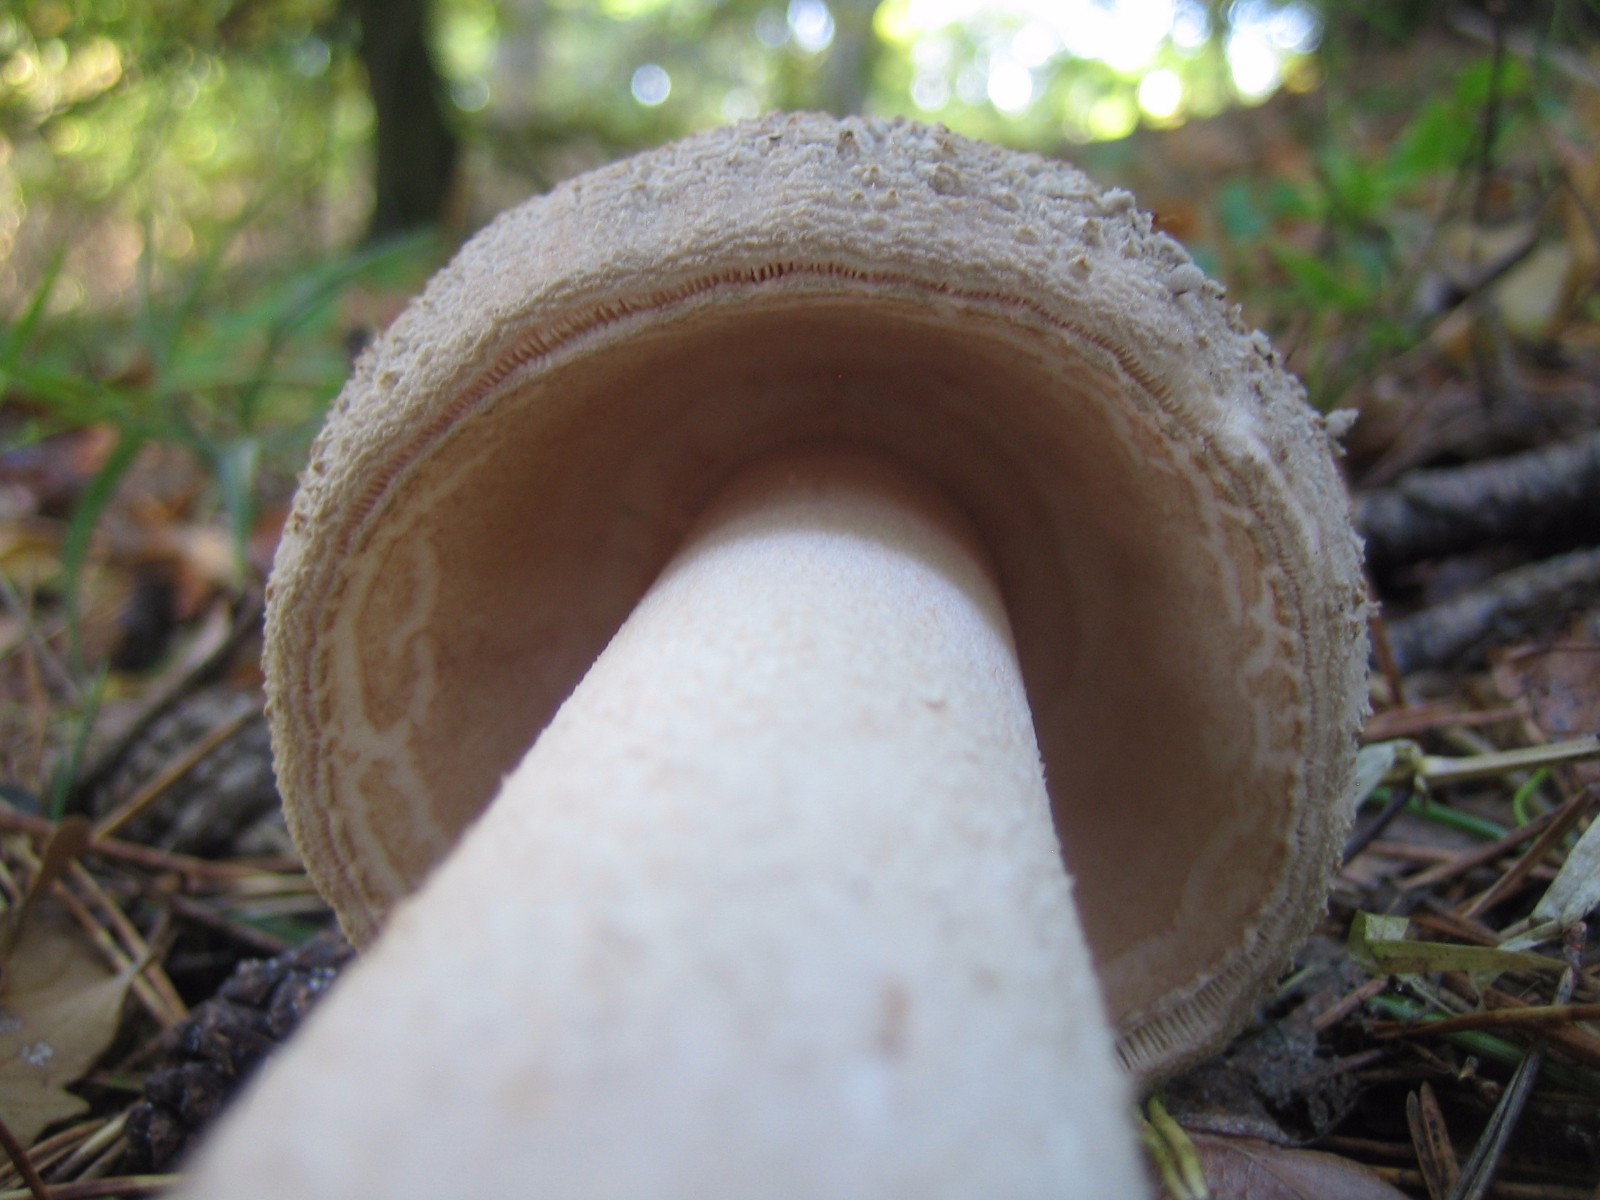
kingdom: Fungi
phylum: Basidiomycota
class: Agaricomycetes
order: Agaricales
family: Amanitaceae
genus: Amanita
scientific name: Amanita rubescens
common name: rødmende fluesvamp
